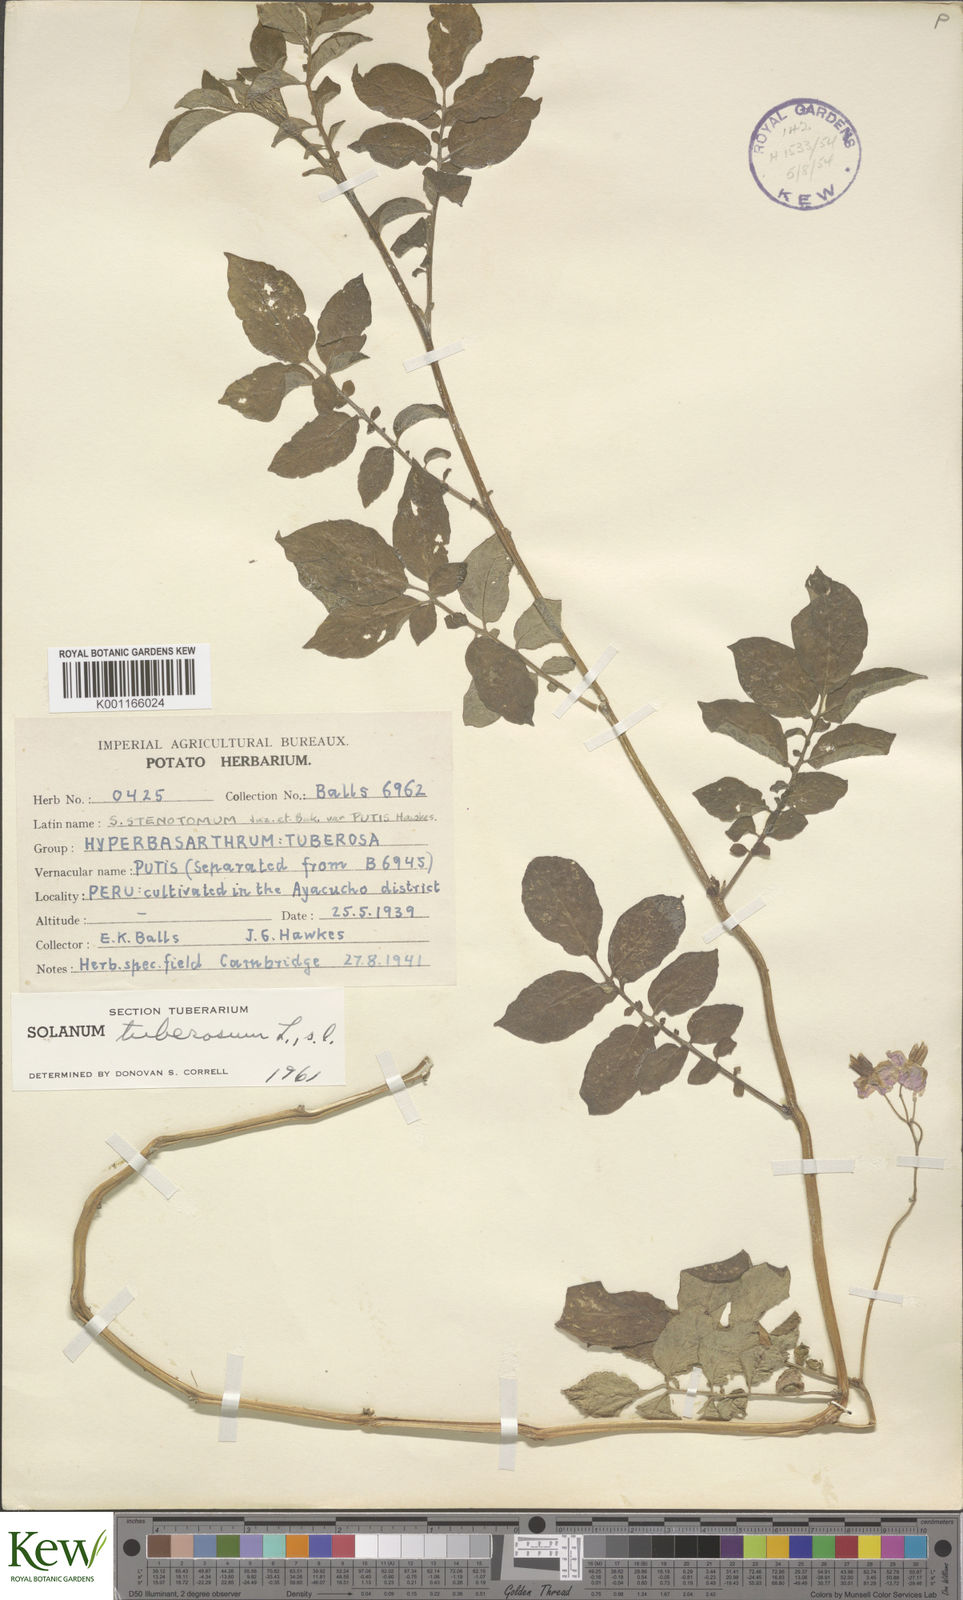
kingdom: Plantae
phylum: Tracheophyta
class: Magnoliopsida
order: Solanales
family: Solanaceae
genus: Solanum
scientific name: Solanum tuberosum
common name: Potato
